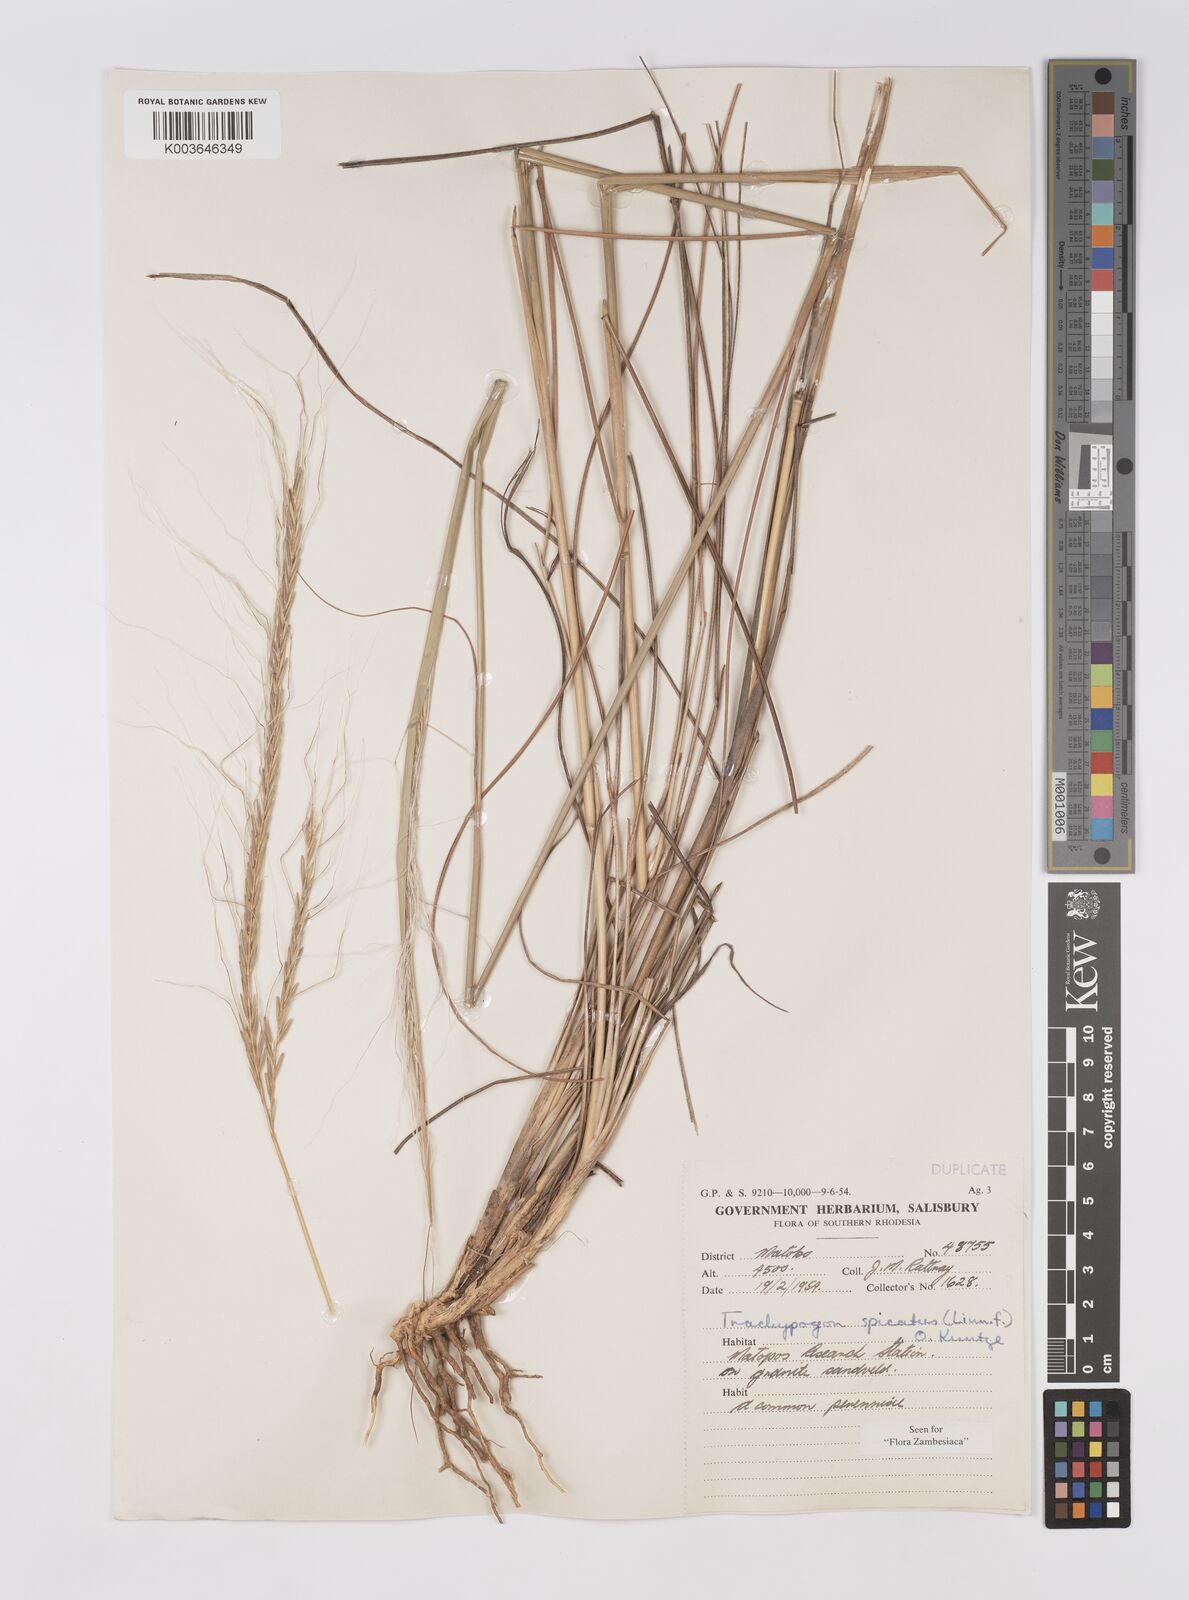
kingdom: Plantae
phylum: Tracheophyta
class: Liliopsida
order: Poales
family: Poaceae
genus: Trachypogon
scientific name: Trachypogon spicatus
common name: Crinkle-awn
